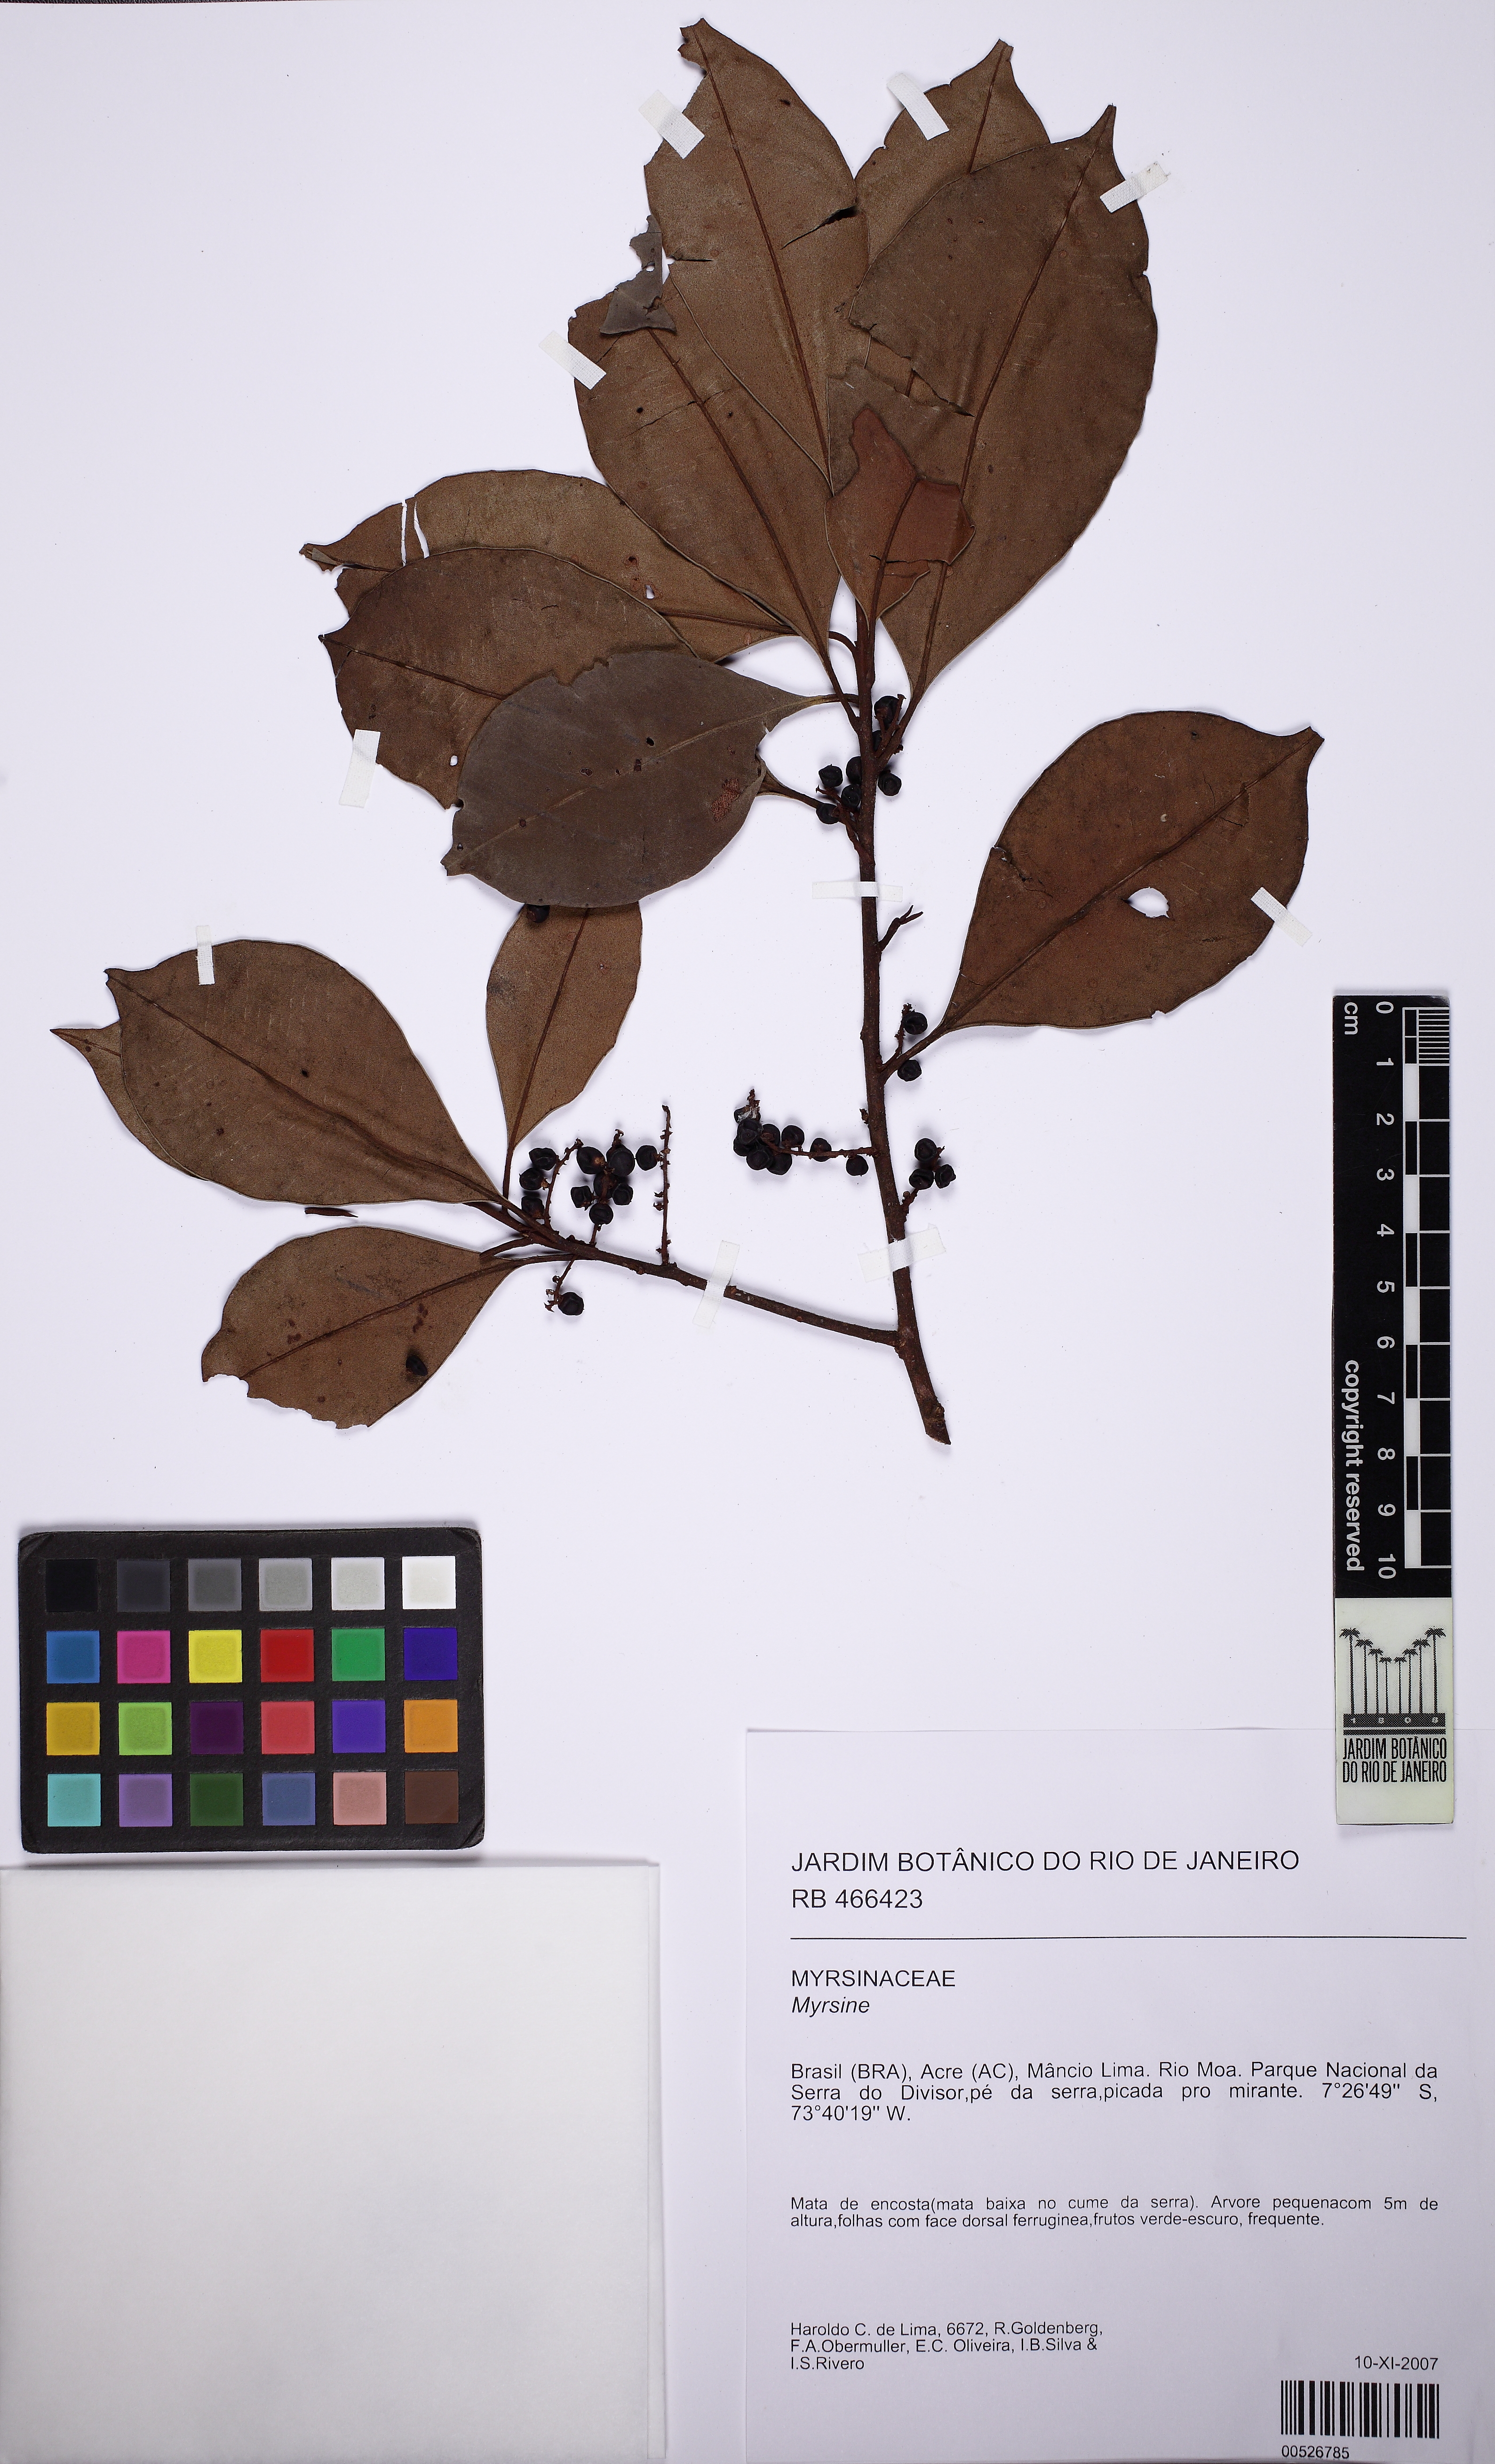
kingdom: Plantae
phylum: Tracheophyta
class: Magnoliopsida
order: Ericales
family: Primulaceae
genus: Cybianthus
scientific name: Cybianthus
